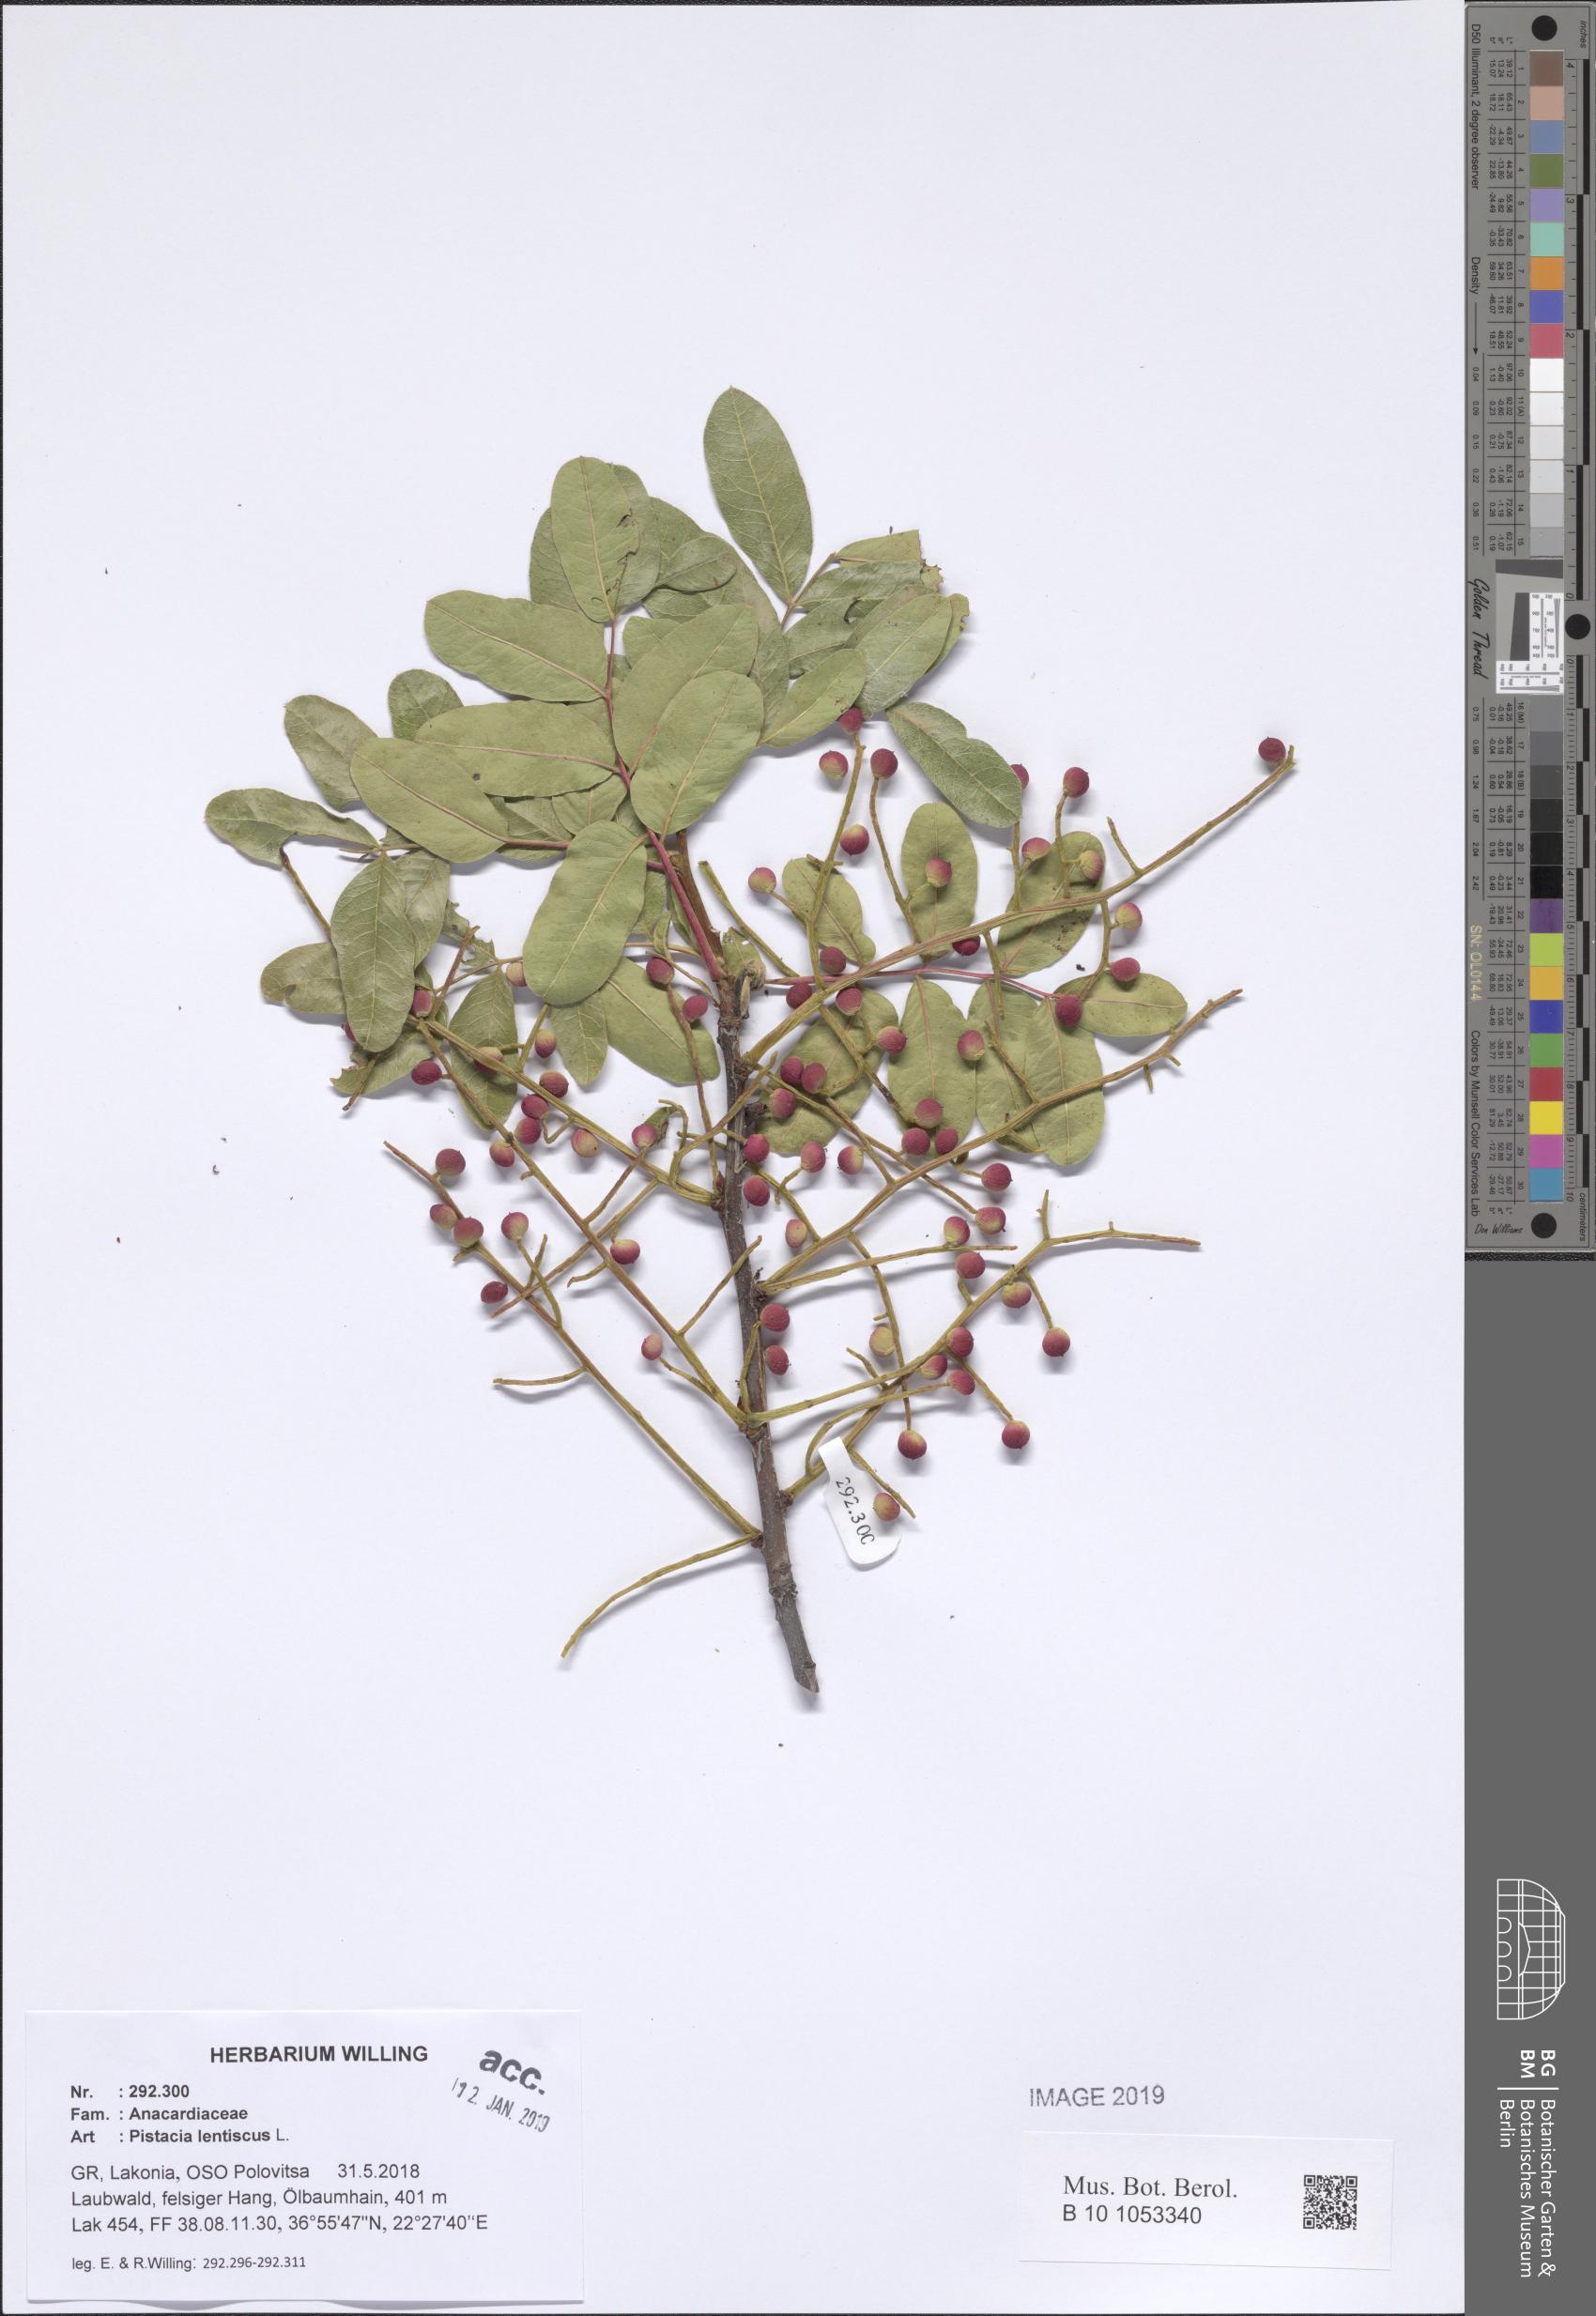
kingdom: Plantae
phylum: Tracheophyta
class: Magnoliopsida
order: Sapindales
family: Anacardiaceae
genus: Pistacia
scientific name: Pistacia lentiscus
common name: Lentisk
